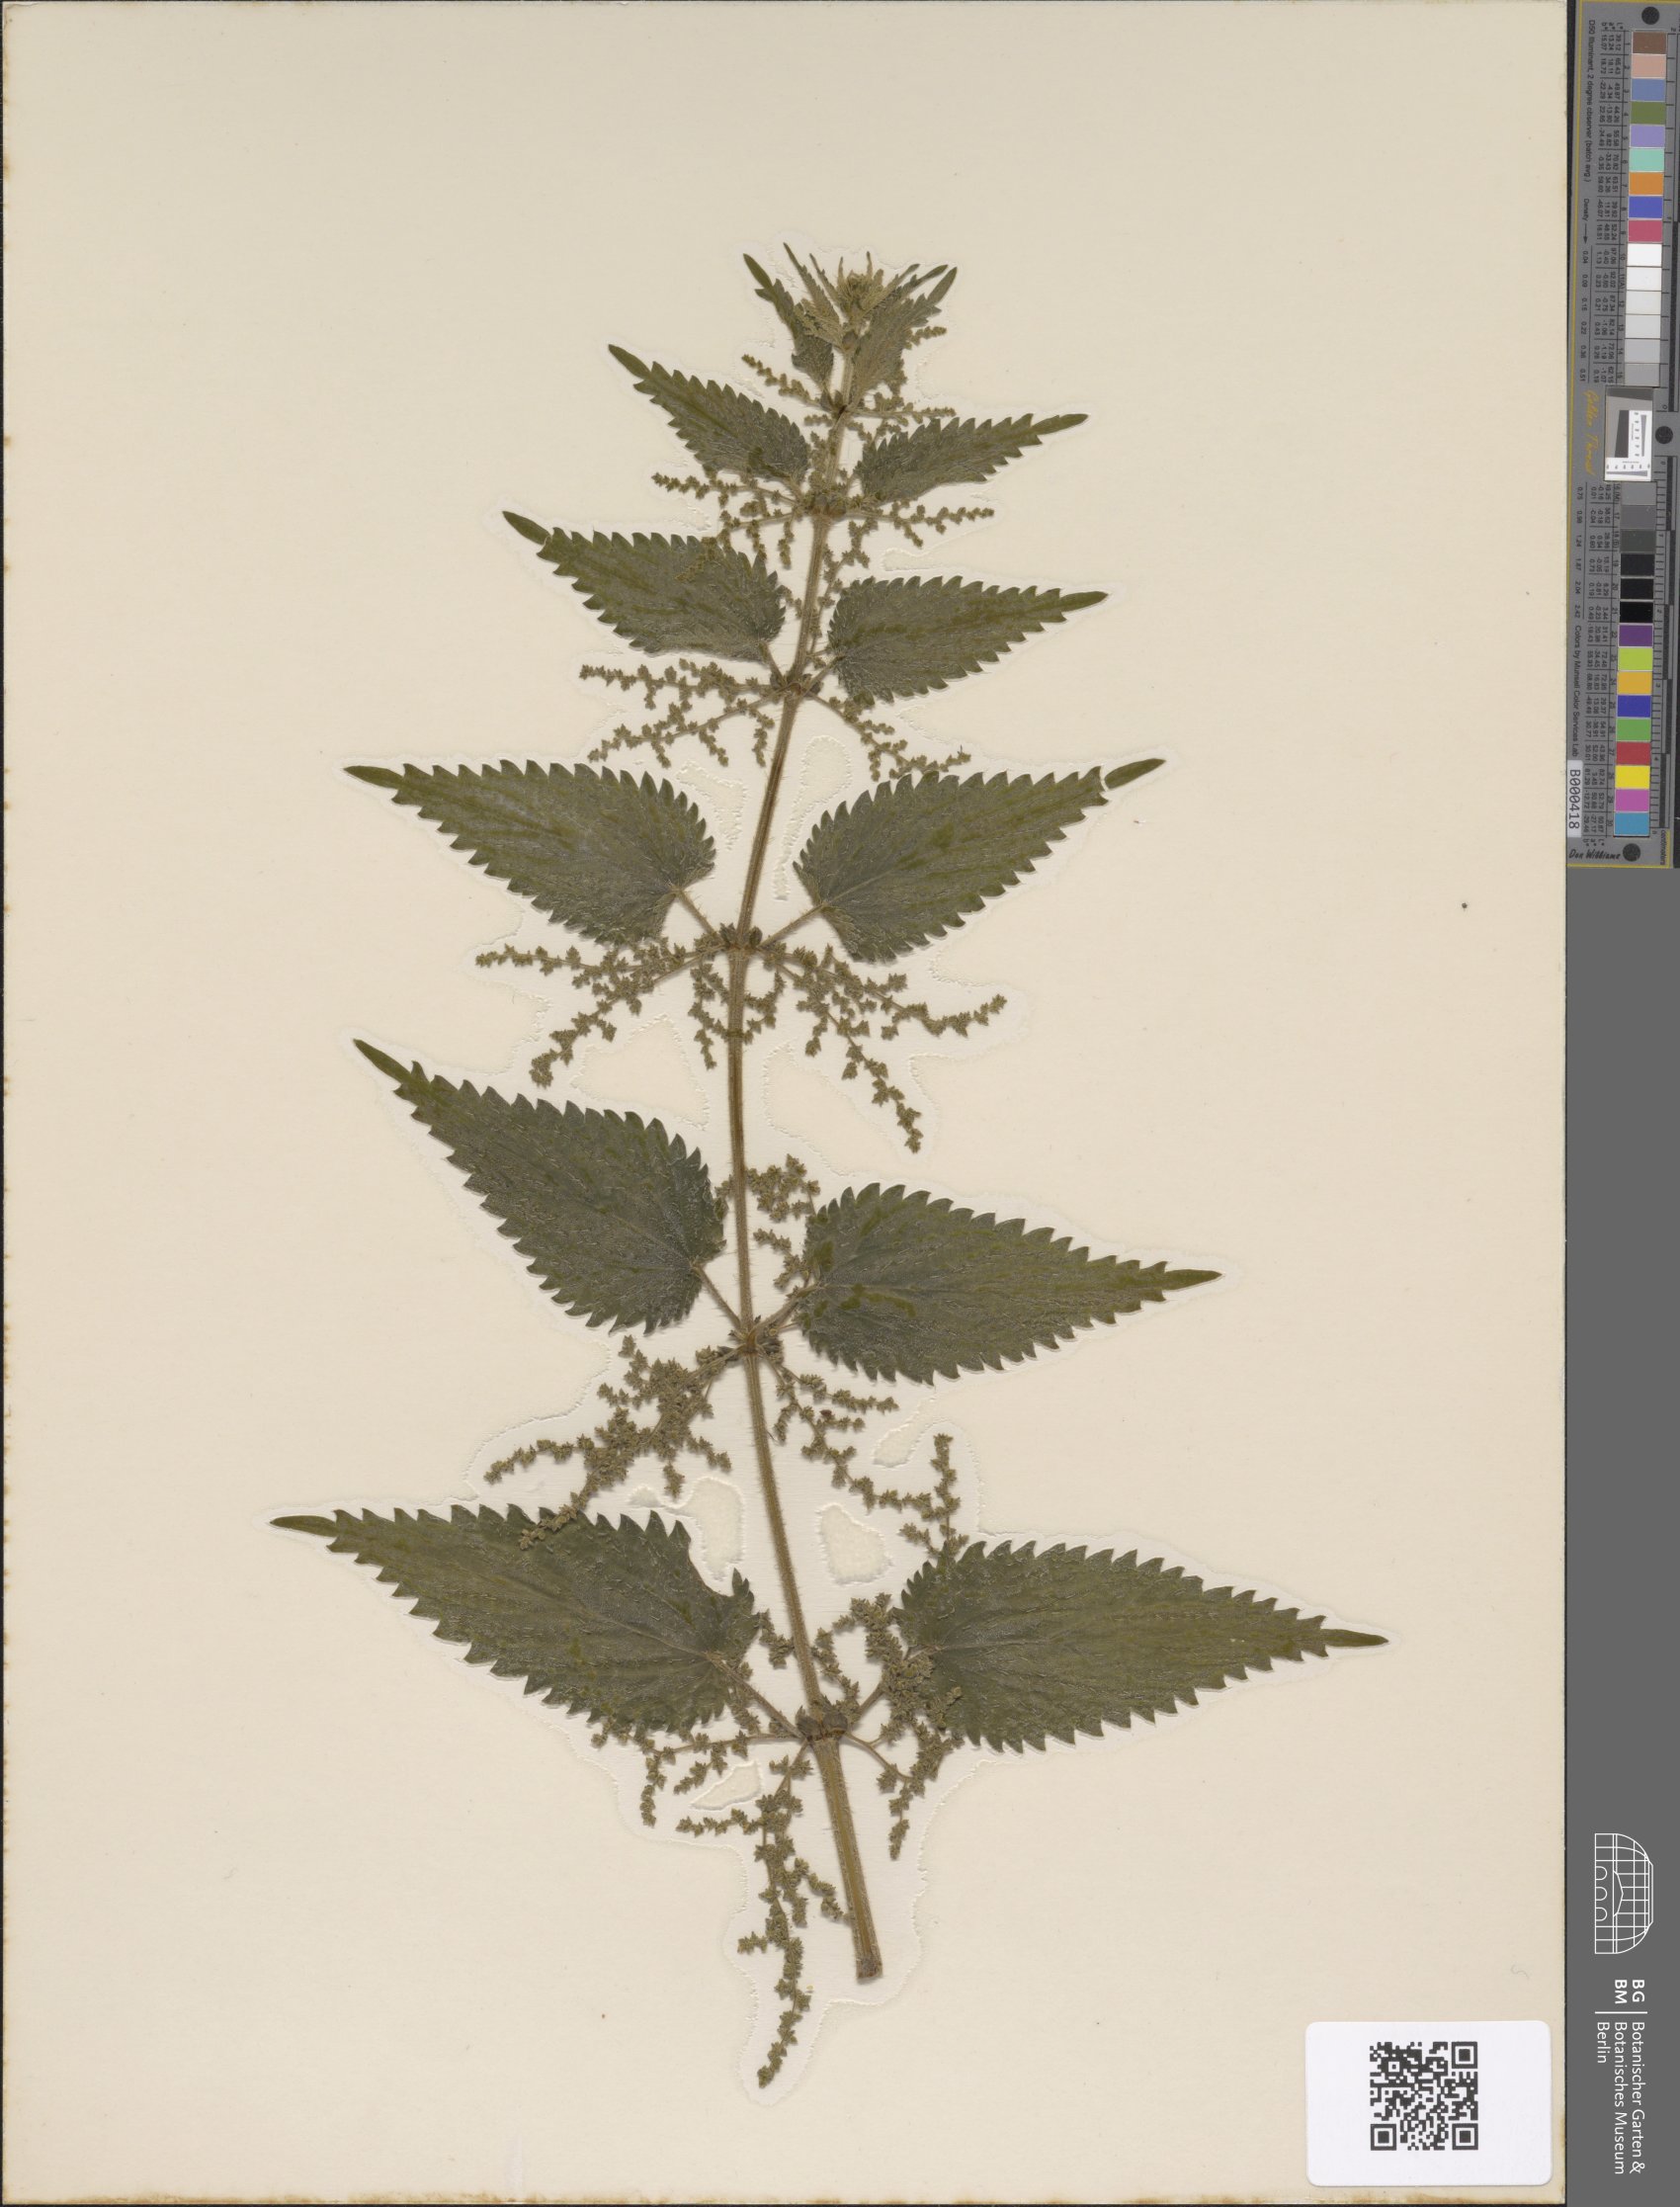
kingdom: Plantae
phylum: Tracheophyta
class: Magnoliopsida
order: Rosales
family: Urticaceae
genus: Urtica
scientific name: Urtica dioica
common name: Common nettle
